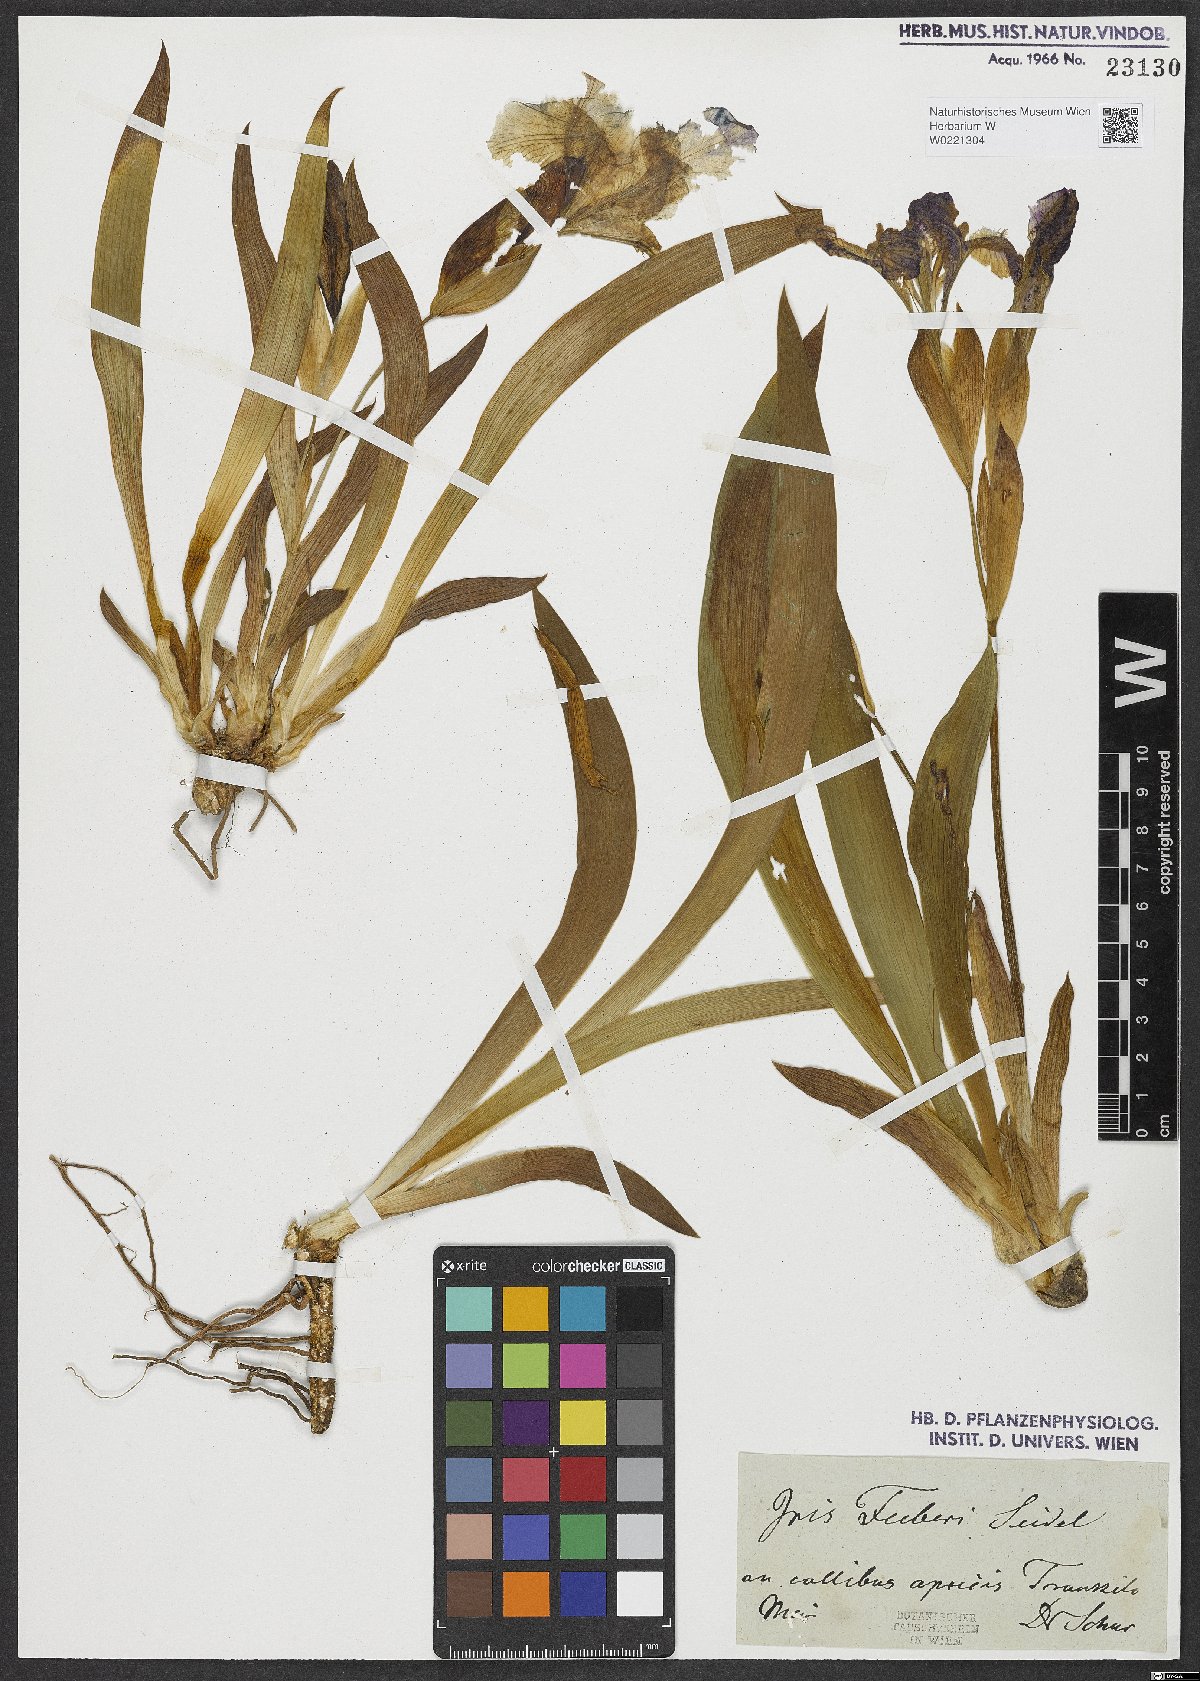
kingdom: Plantae
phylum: Tracheophyta
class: Liliopsida
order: Asparagales
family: Iridaceae
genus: Iris
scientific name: Iris aphylla
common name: Stool iris
